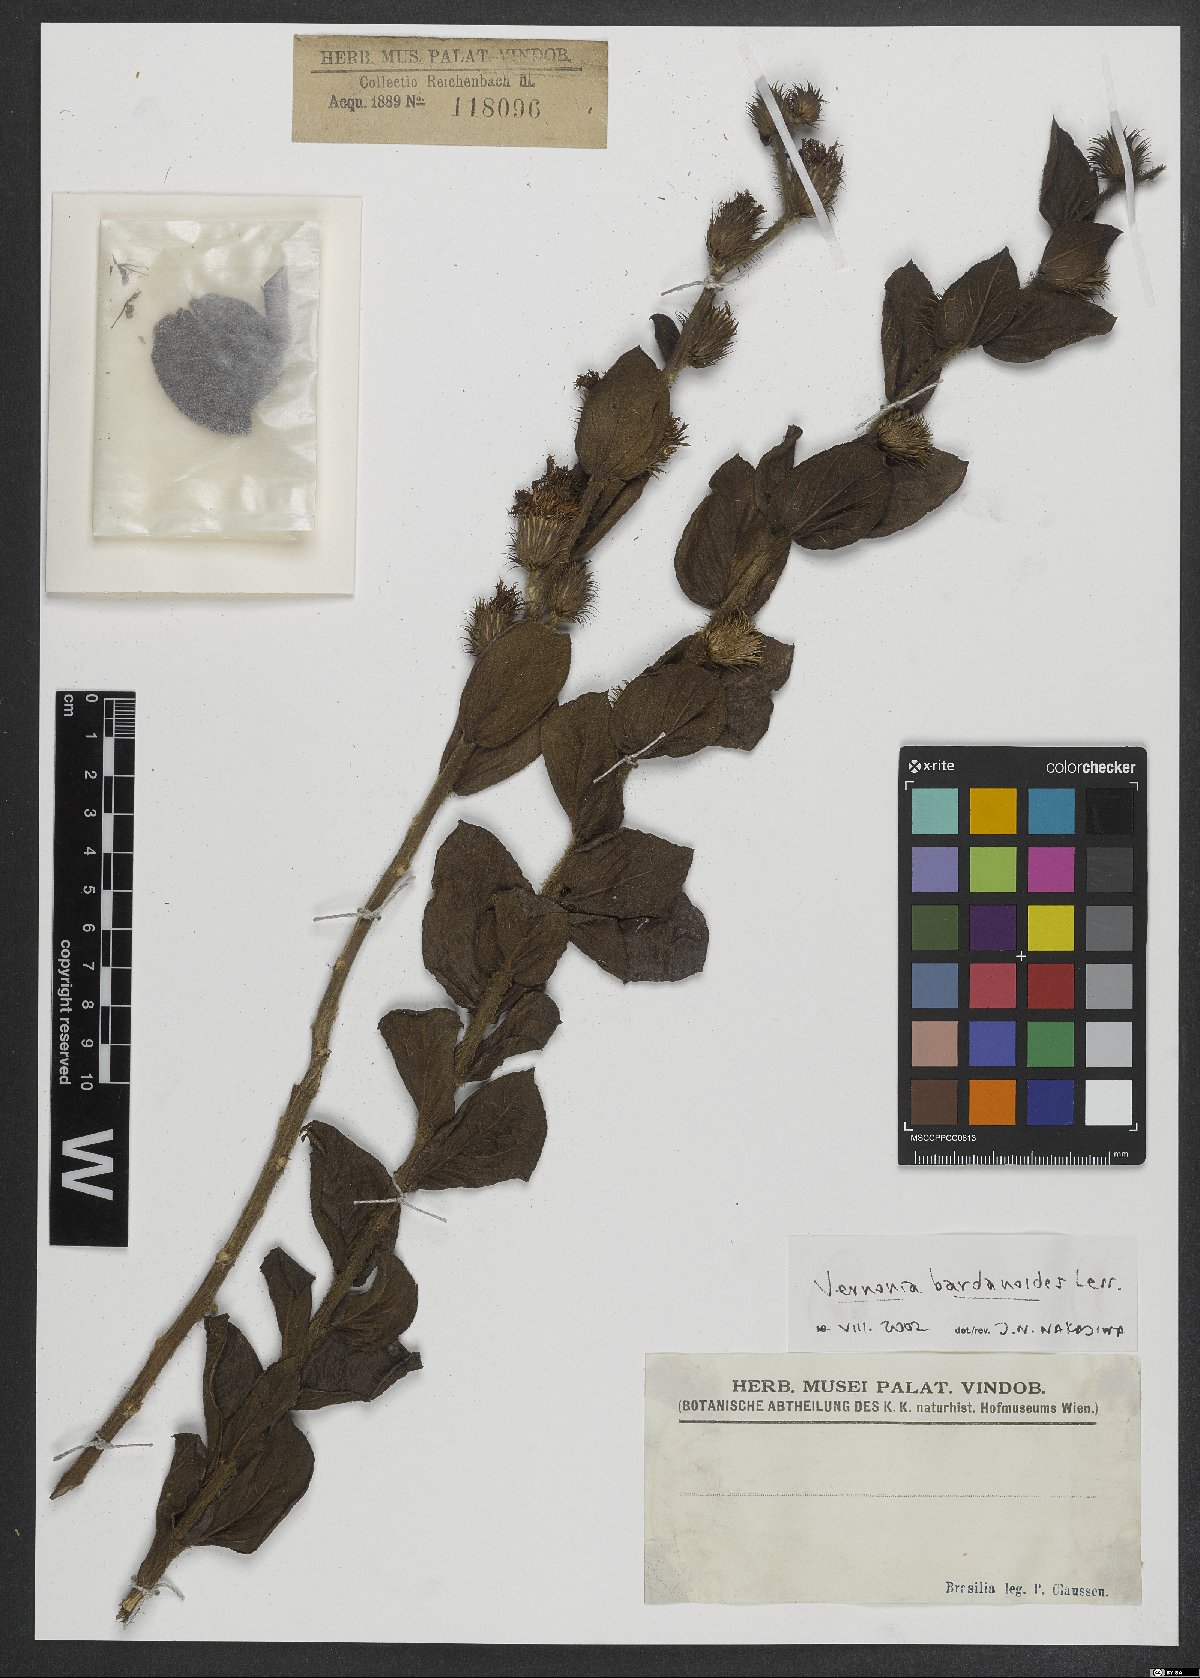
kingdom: Plantae
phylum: Tracheophyta
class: Magnoliopsida
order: Asterales
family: Asteraceae
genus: Lessingianthus
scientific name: Lessingianthus bardanioides
